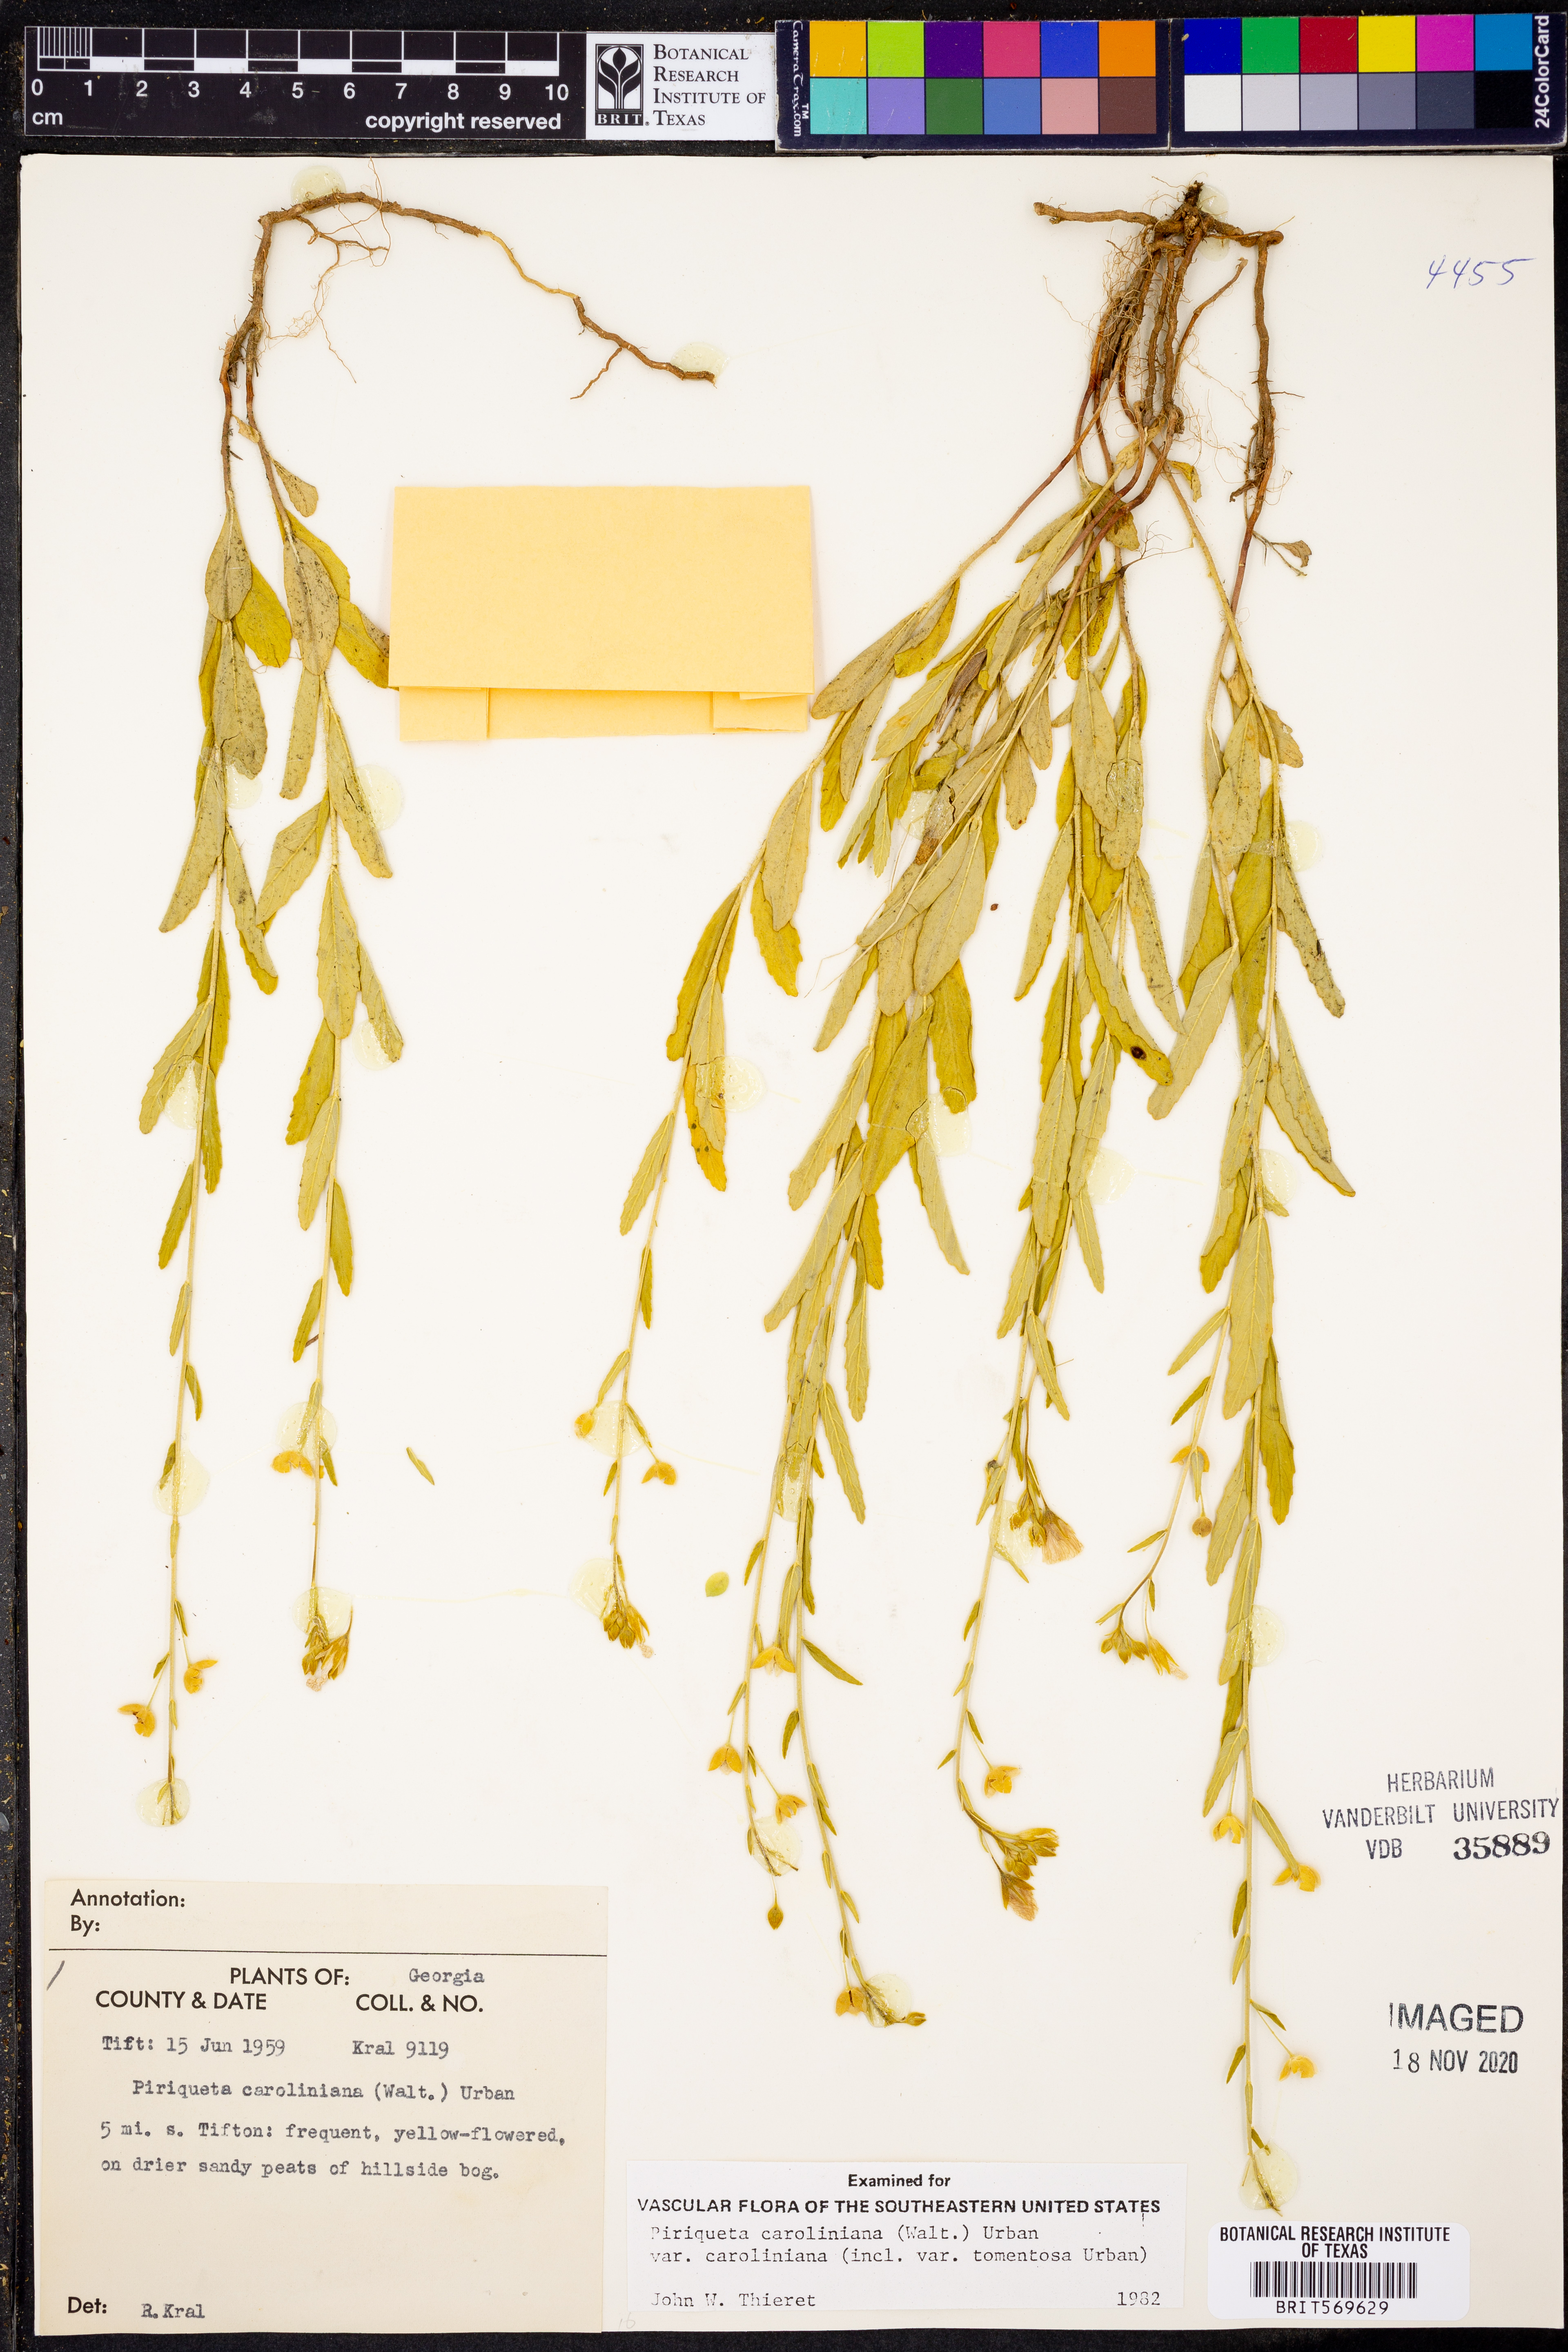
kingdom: Plantae
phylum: Tracheophyta
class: Magnoliopsida
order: Malpighiales
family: Turneraceae
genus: Piriqueta
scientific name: Piriqueta cistoides
